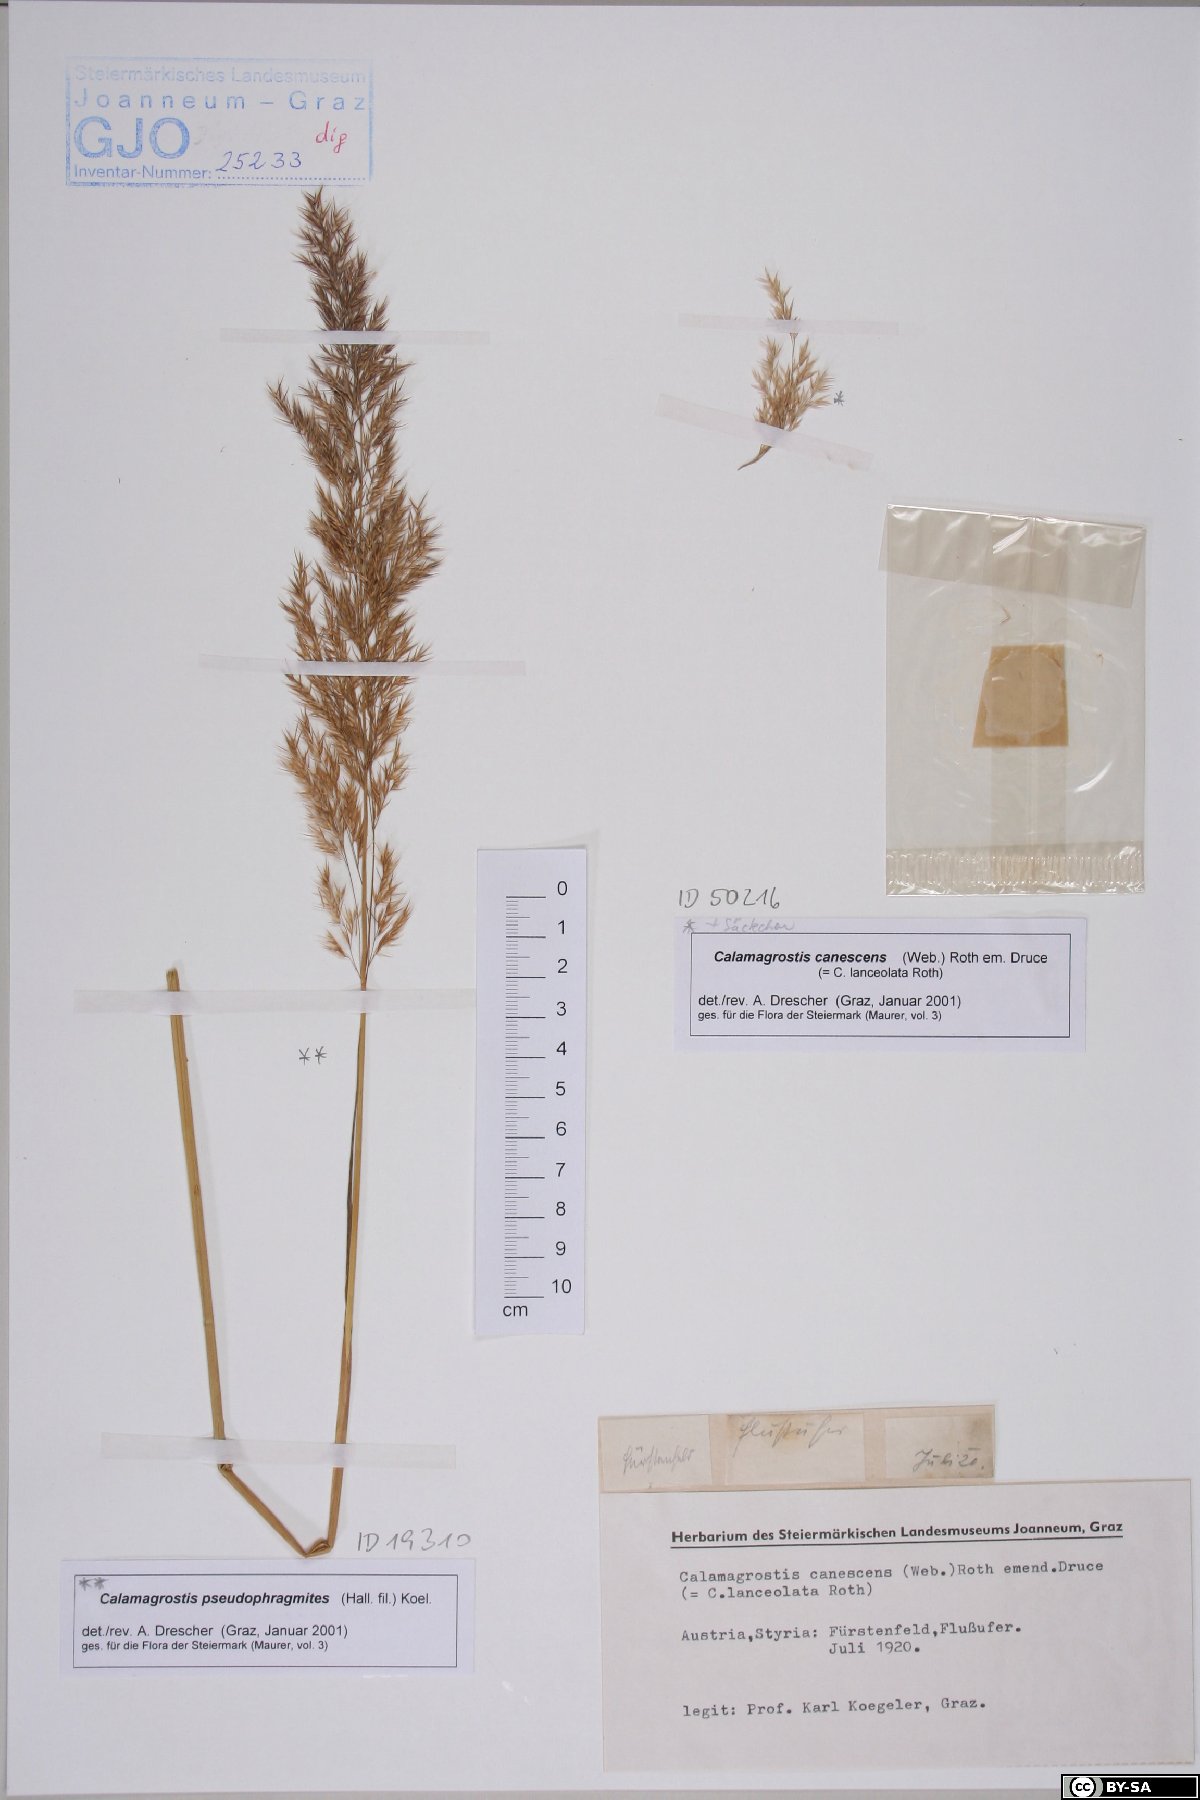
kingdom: Plantae
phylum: Tracheophyta
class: Liliopsida
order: Poales
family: Poaceae
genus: Calamagrostis
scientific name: Calamagrostis pseudophragmites
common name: Coastal small-reed
